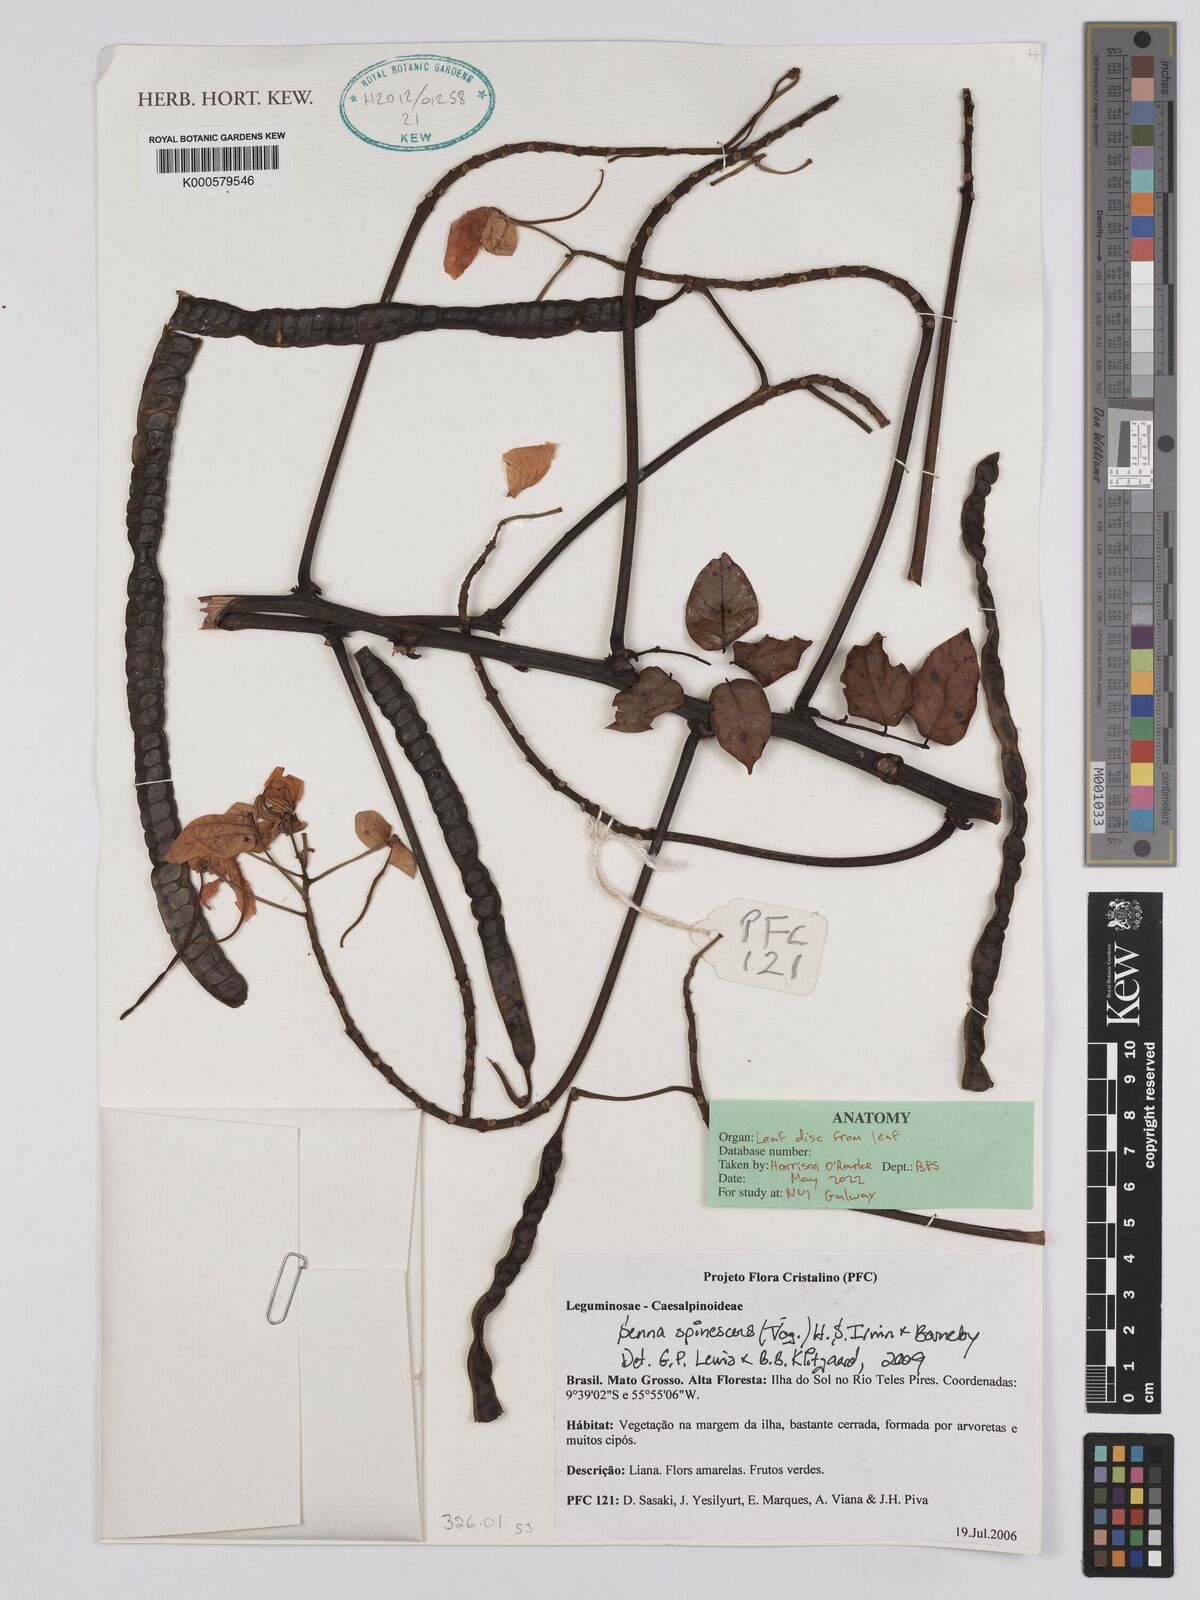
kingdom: Plantae
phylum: Tracheophyta
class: Magnoliopsida
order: Fabales
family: Fabaceae
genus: Senna
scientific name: Senna spinescens
